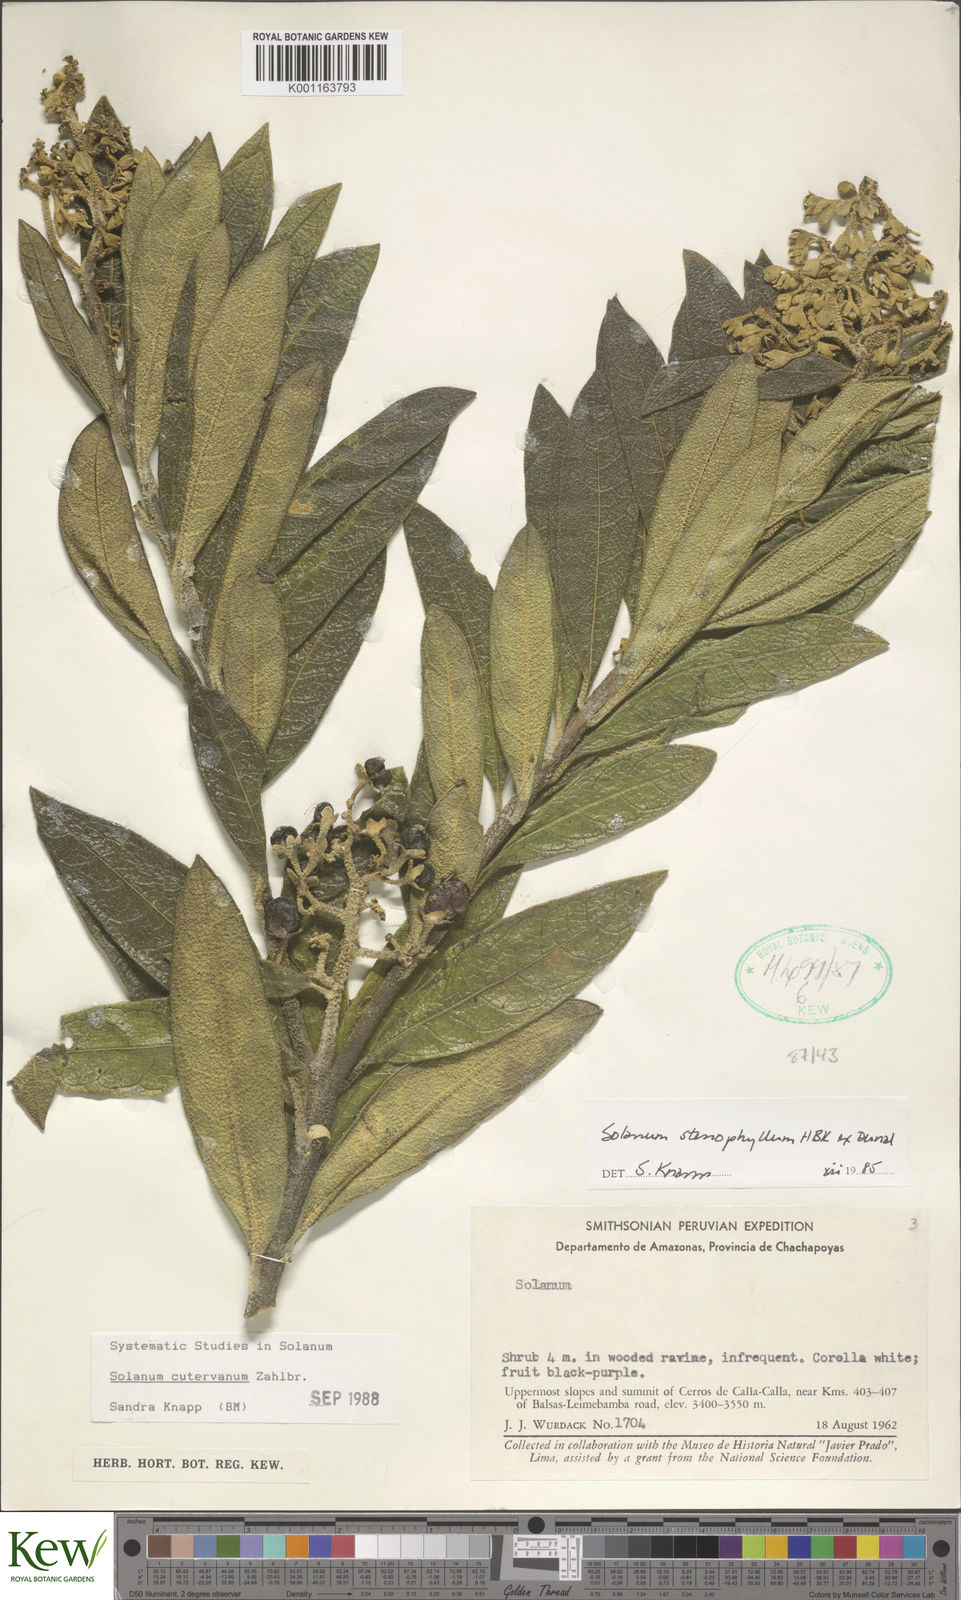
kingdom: Plantae
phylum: Tracheophyta
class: Magnoliopsida
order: Solanales
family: Solanaceae
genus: Solanum
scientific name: Solanum cutervanum
